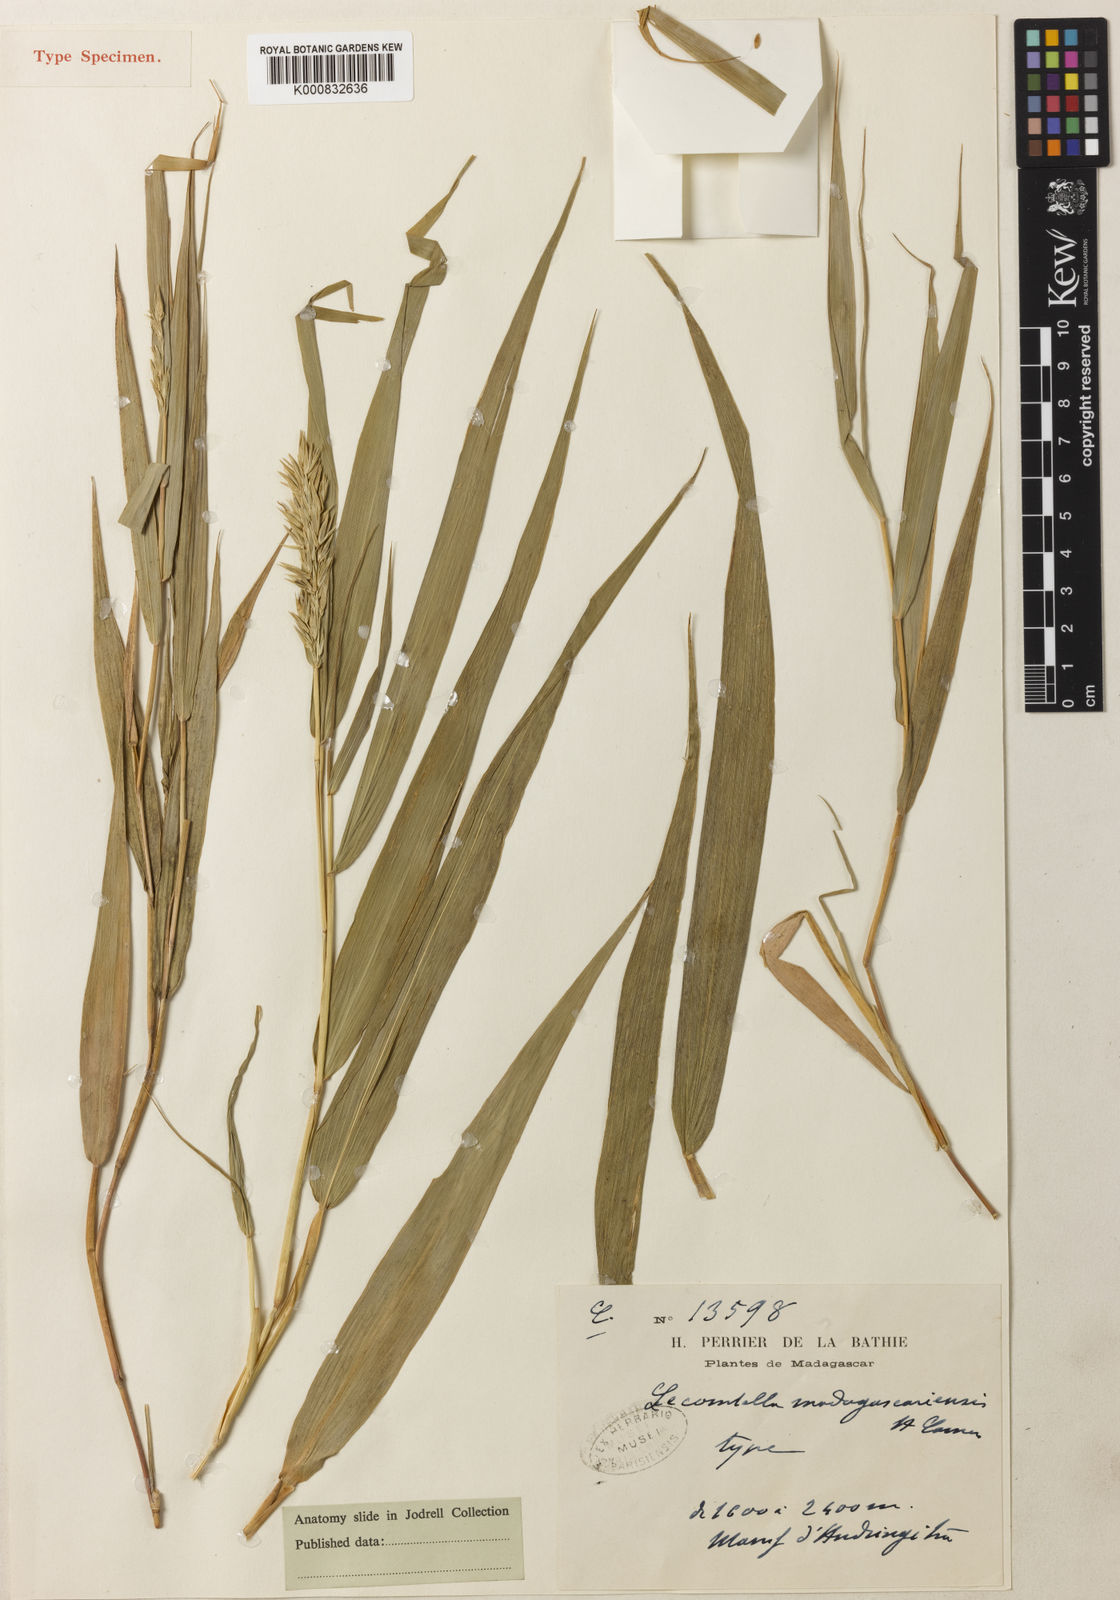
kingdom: Plantae
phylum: Tracheophyta
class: Liliopsida
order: Poales
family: Poaceae
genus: Lecomtella
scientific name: Lecomtella madagascariensis
